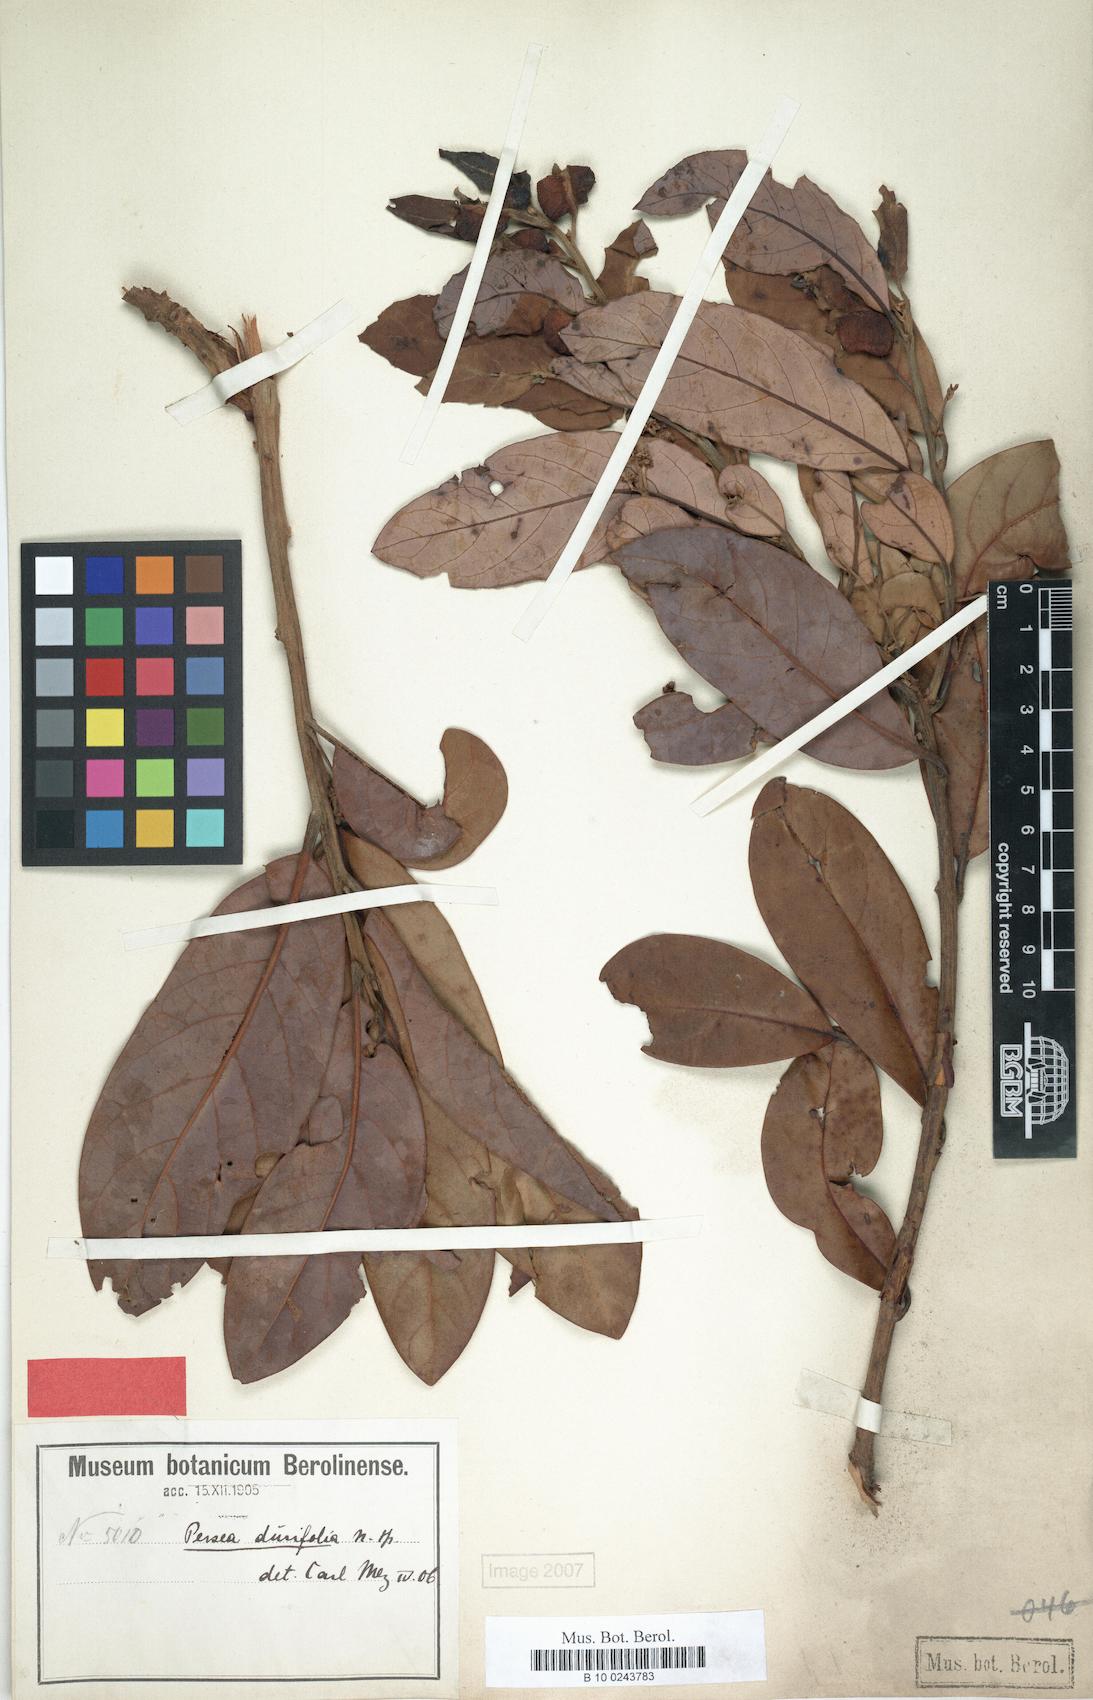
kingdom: Plantae
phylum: Tracheophyta
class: Magnoliopsida
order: Laurales
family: Lauraceae
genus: Persea
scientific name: Persea haenkeana
